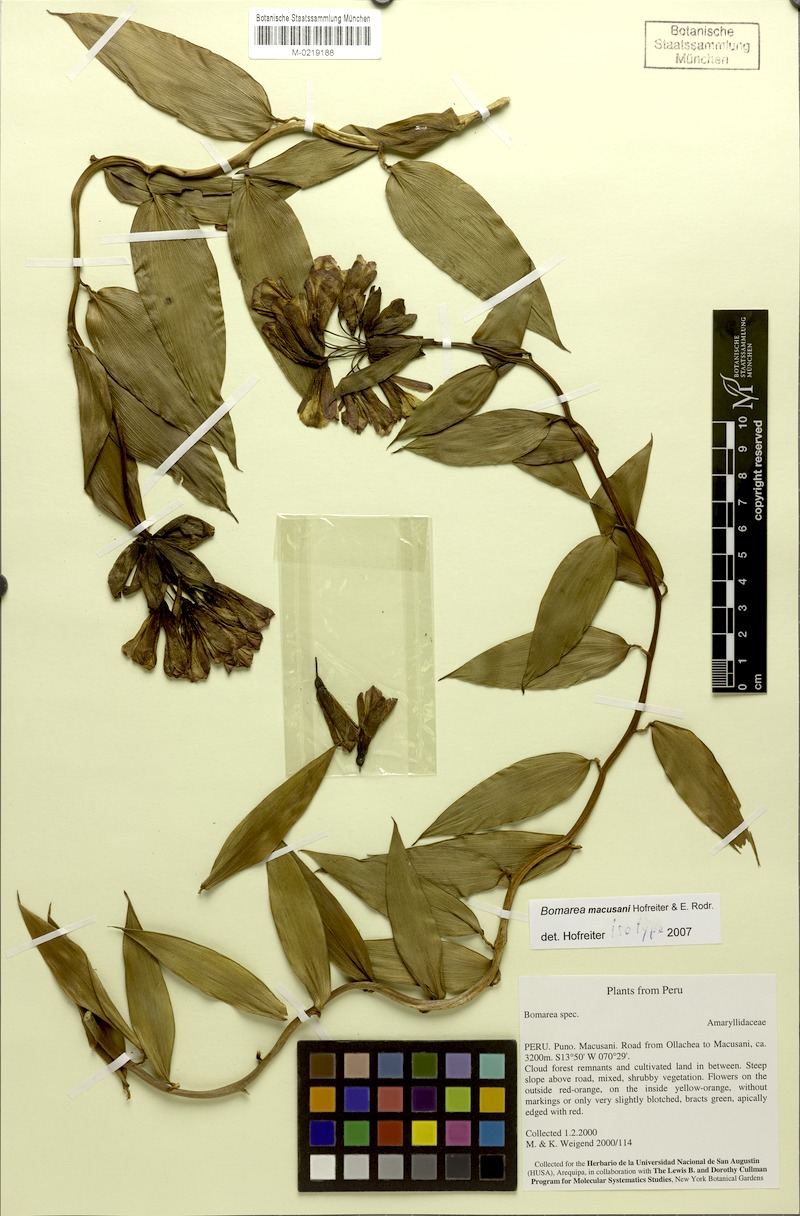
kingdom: Plantae
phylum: Tracheophyta
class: Liliopsida
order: Liliales
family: Alstroemeriaceae
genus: Bomarea
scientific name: Bomarea macusanii
